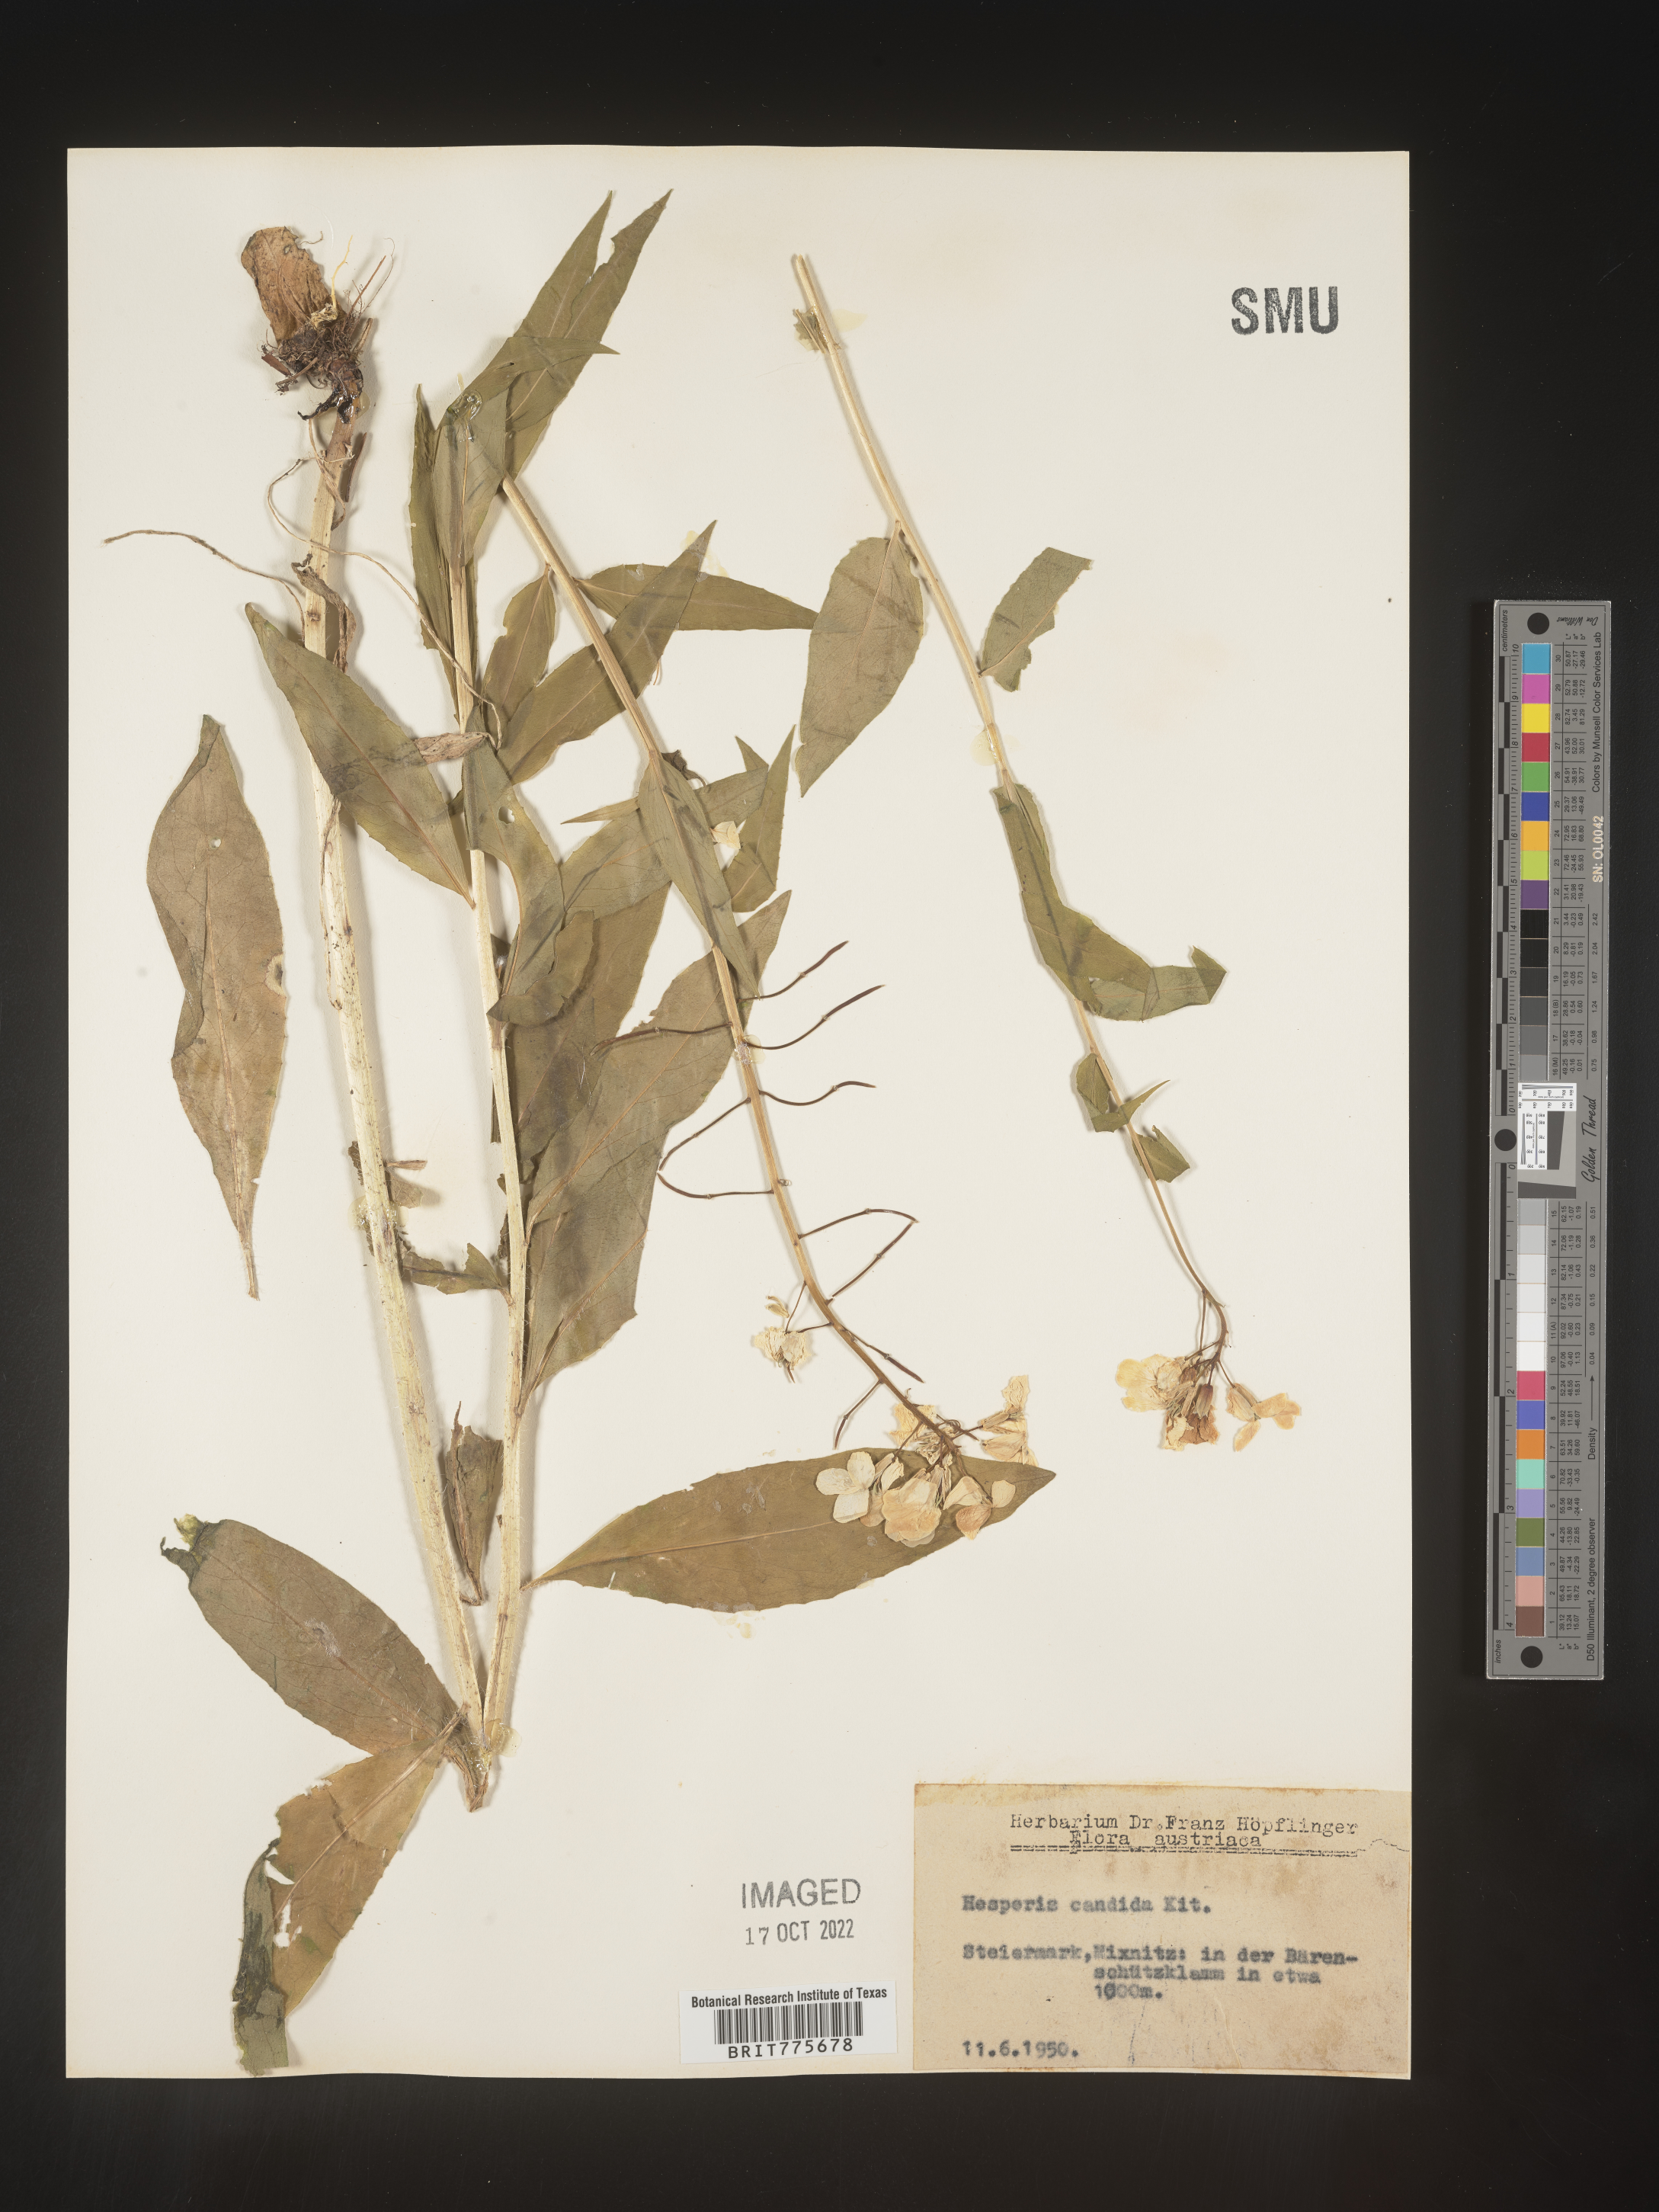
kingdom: Plantae
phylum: Tracheophyta
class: Magnoliopsida
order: Brassicales
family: Brassicaceae
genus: Hesperis
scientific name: Hesperis
